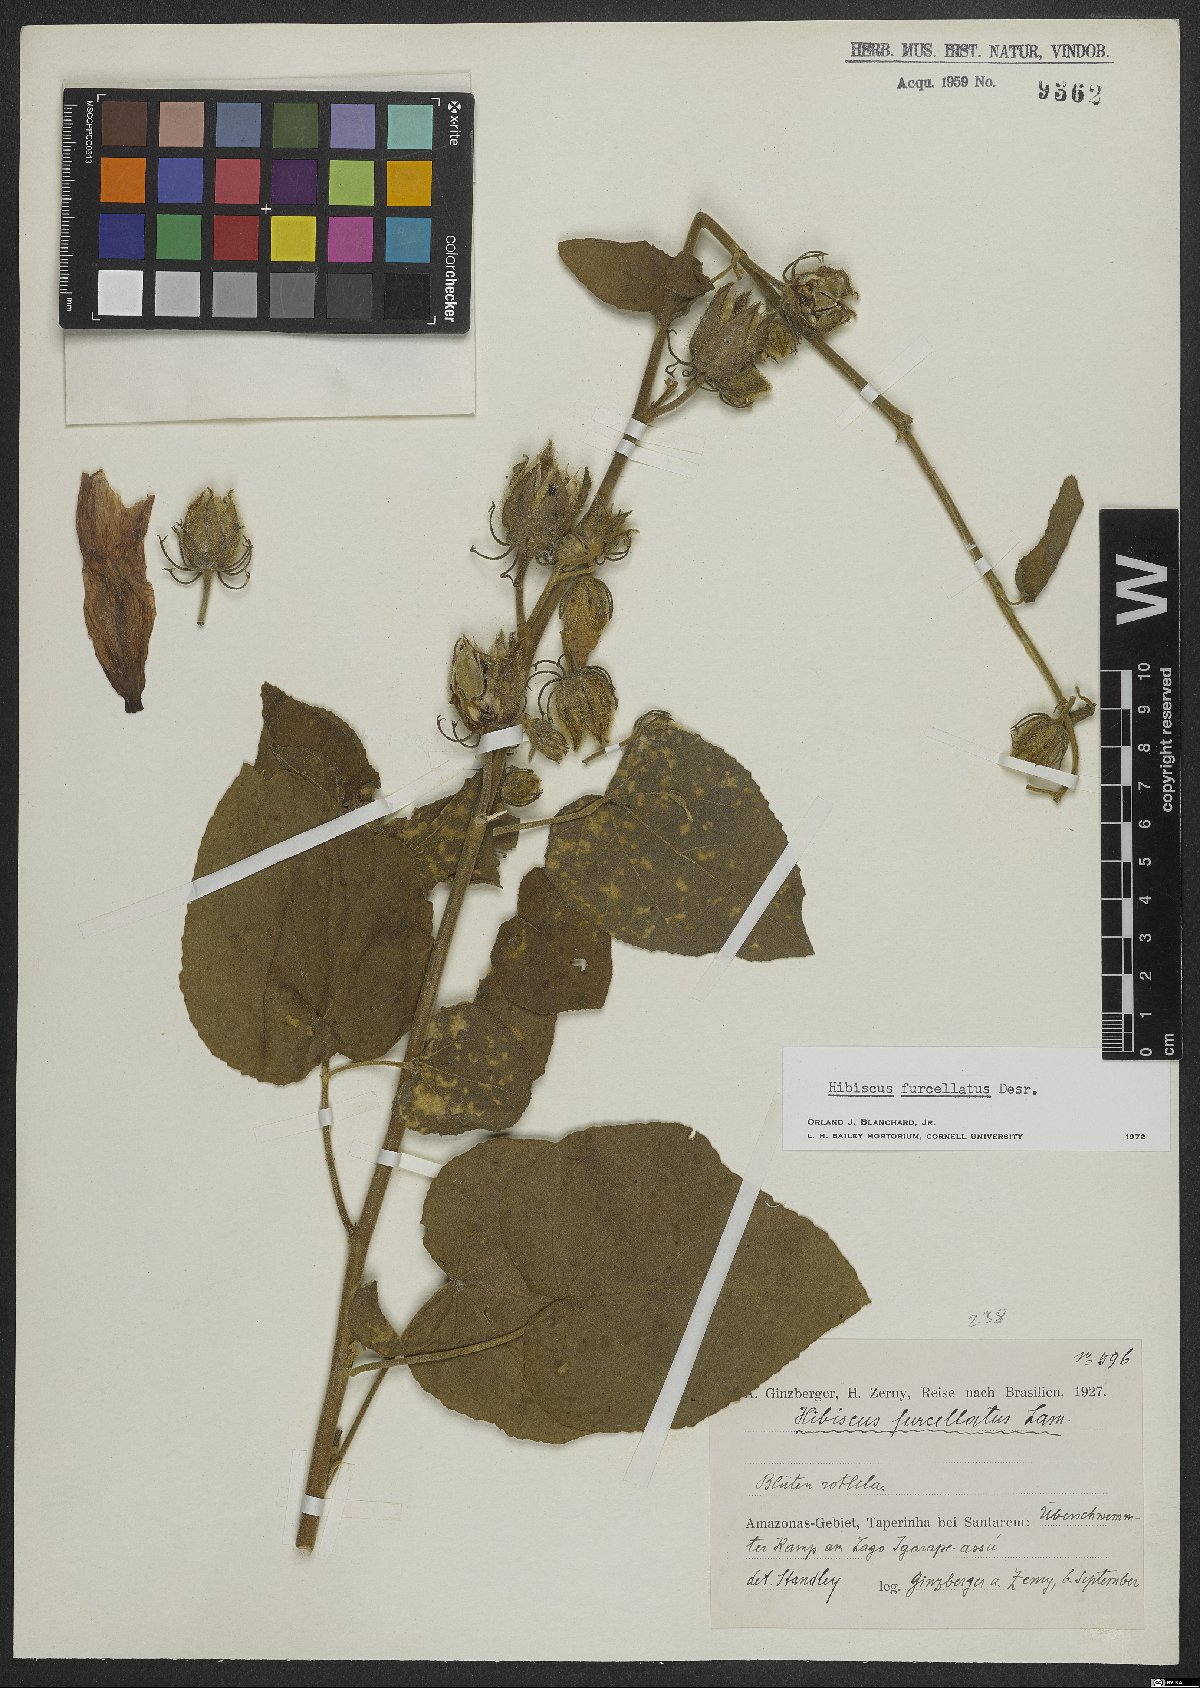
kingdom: Plantae
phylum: Tracheophyta
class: Magnoliopsida
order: Malvales
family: Malvaceae
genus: Hibiscus
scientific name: Hibiscus furcellatus
